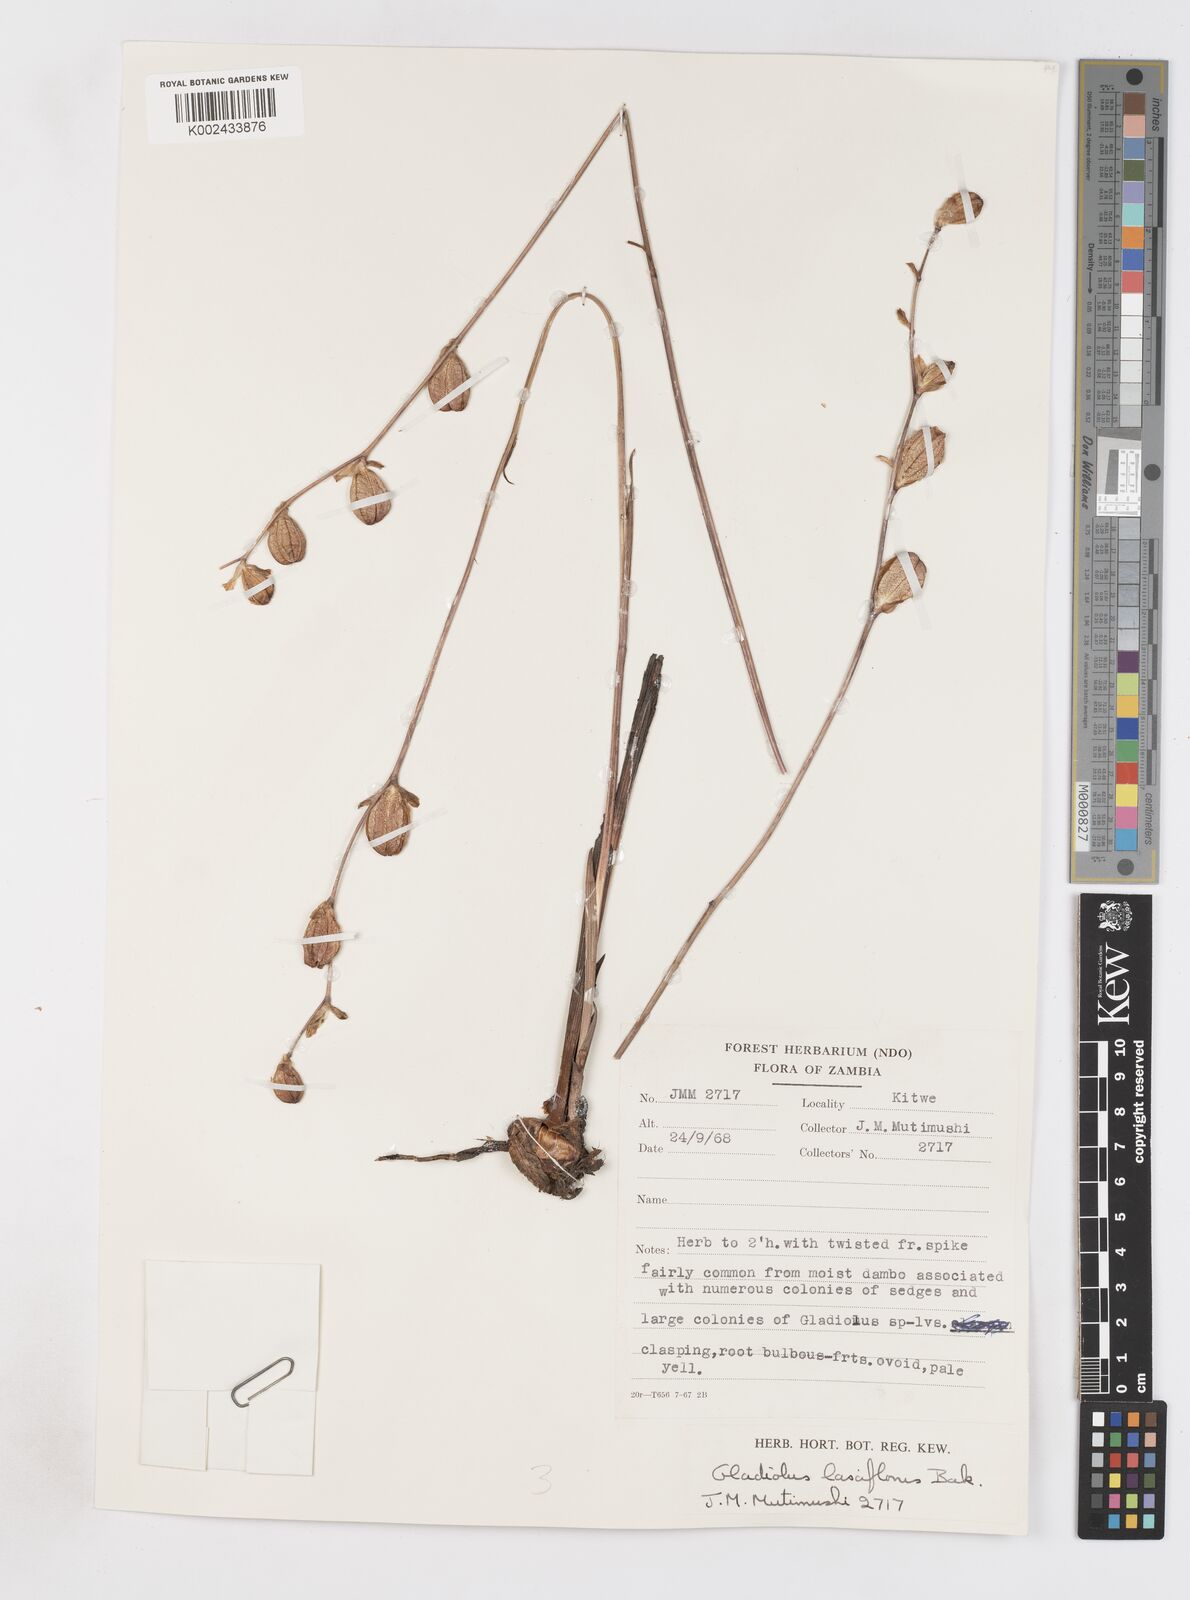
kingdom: Plantae
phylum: Tracheophyta
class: Liliopsida
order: Asparagales
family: Iridaceae
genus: Gladiolus
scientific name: Gladiolus laxiflorus
